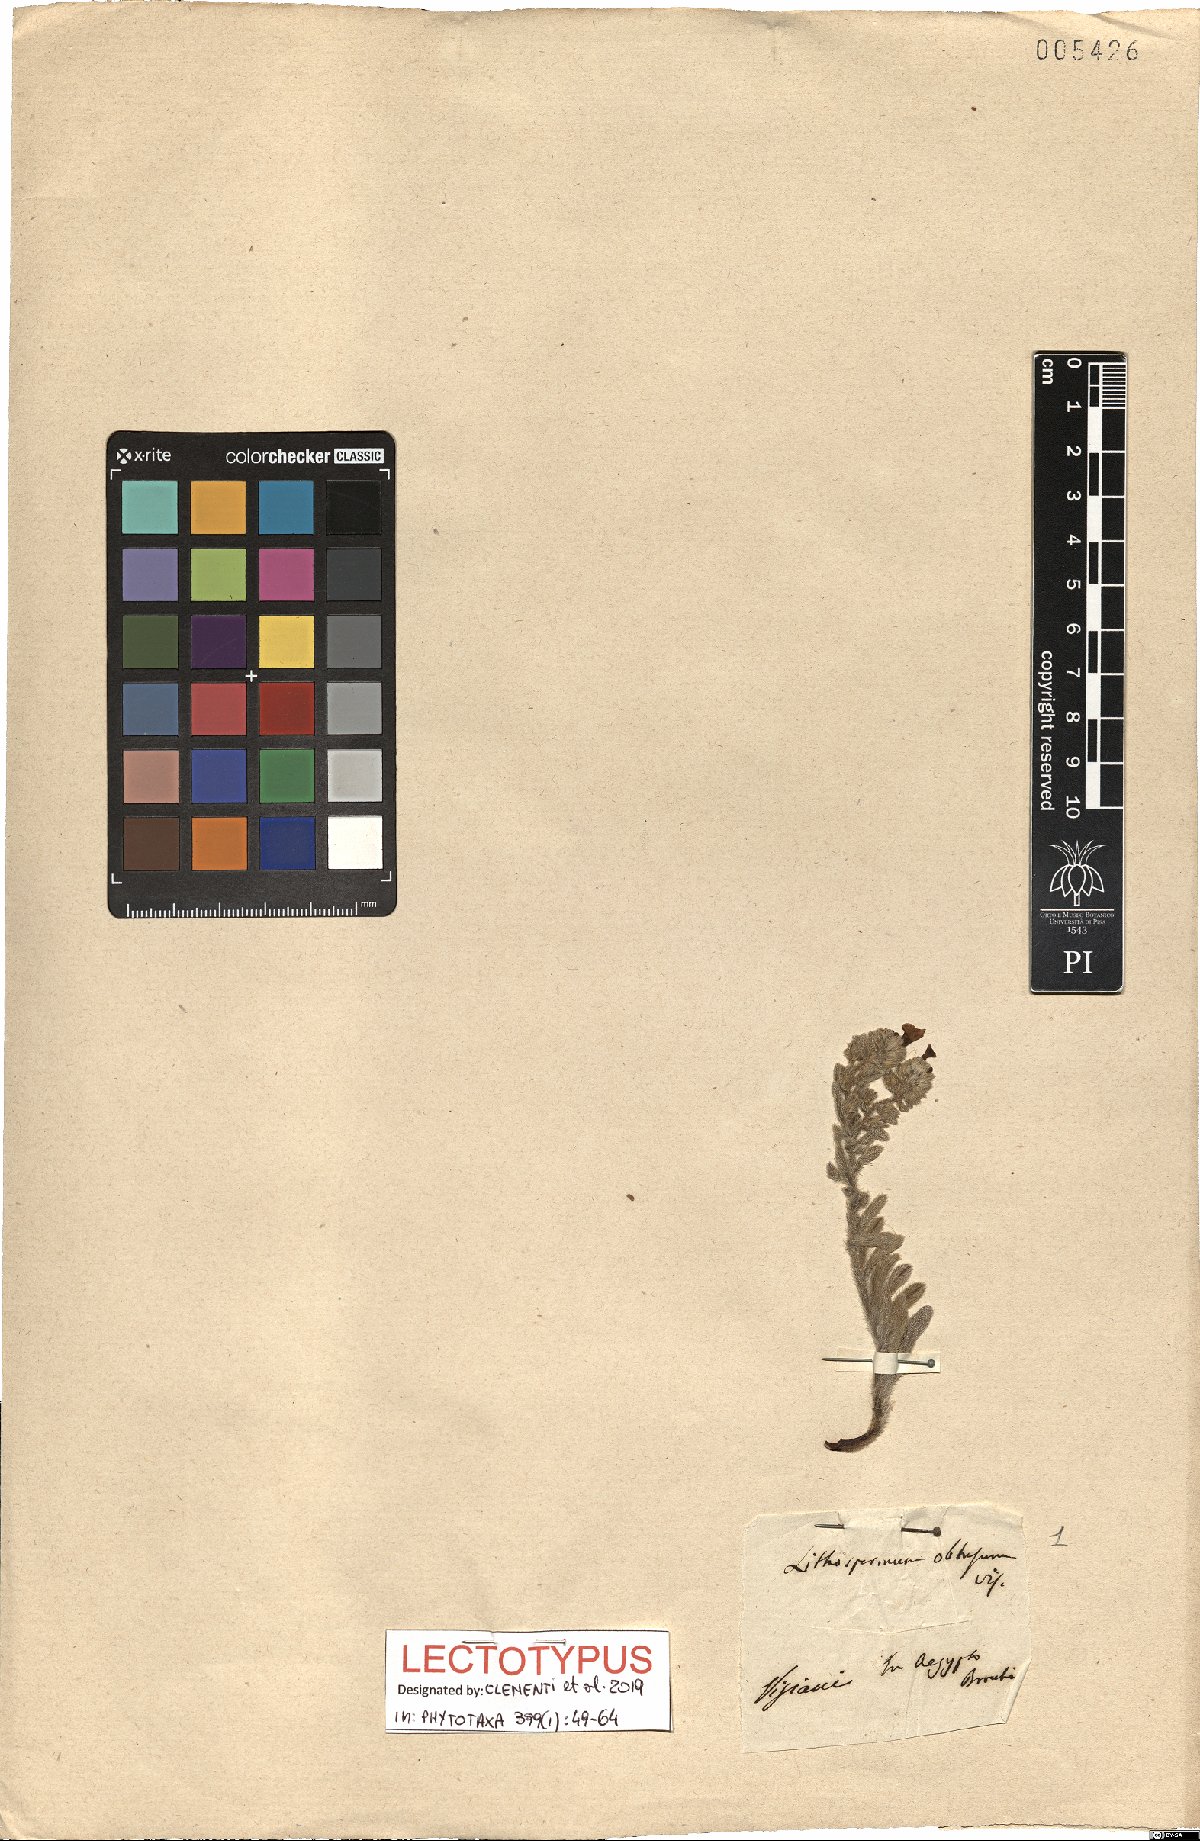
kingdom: Plantae
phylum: Tracheophyta
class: Magnoliopsida
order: Boraginales
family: Boraginaceae
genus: Alkanna
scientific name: Alkanna tinctoria
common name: Dyer's-alkanet
